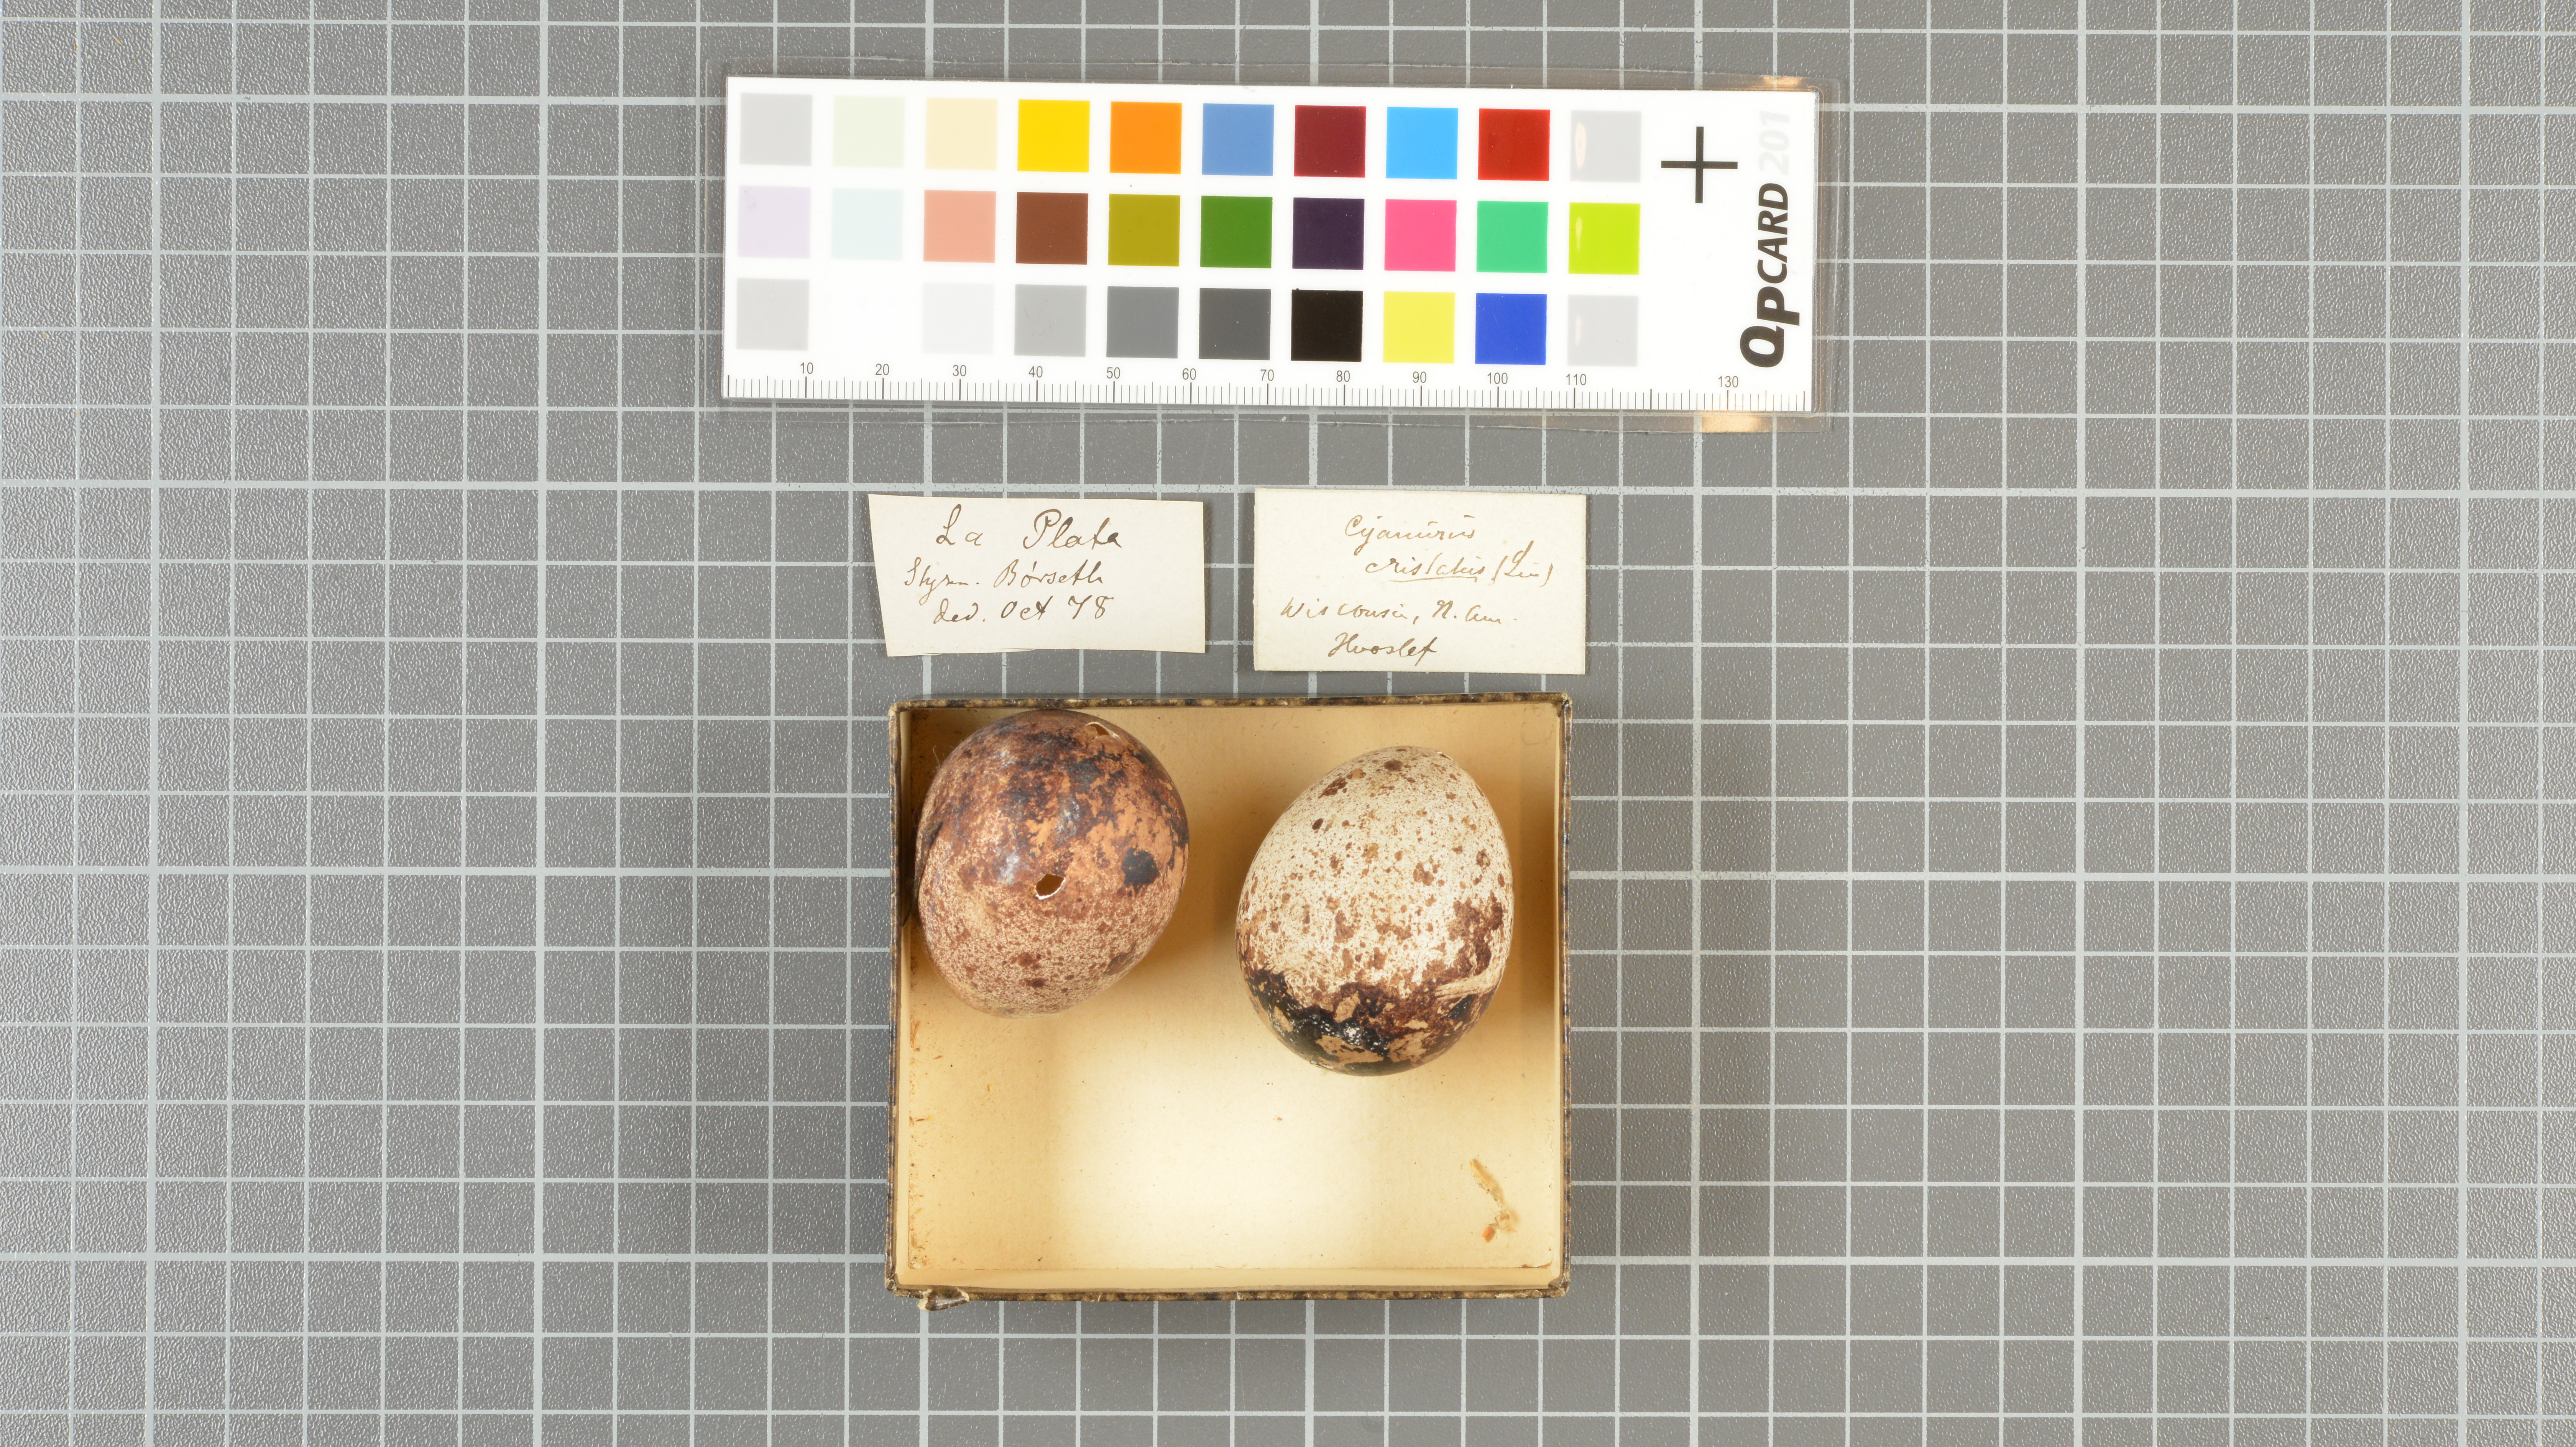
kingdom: Animalia
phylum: Chordata
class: Aves
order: Passeriformes
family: Corvidae
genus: Cyanocitta
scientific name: Cyanocitta cristata
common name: Blue jay
